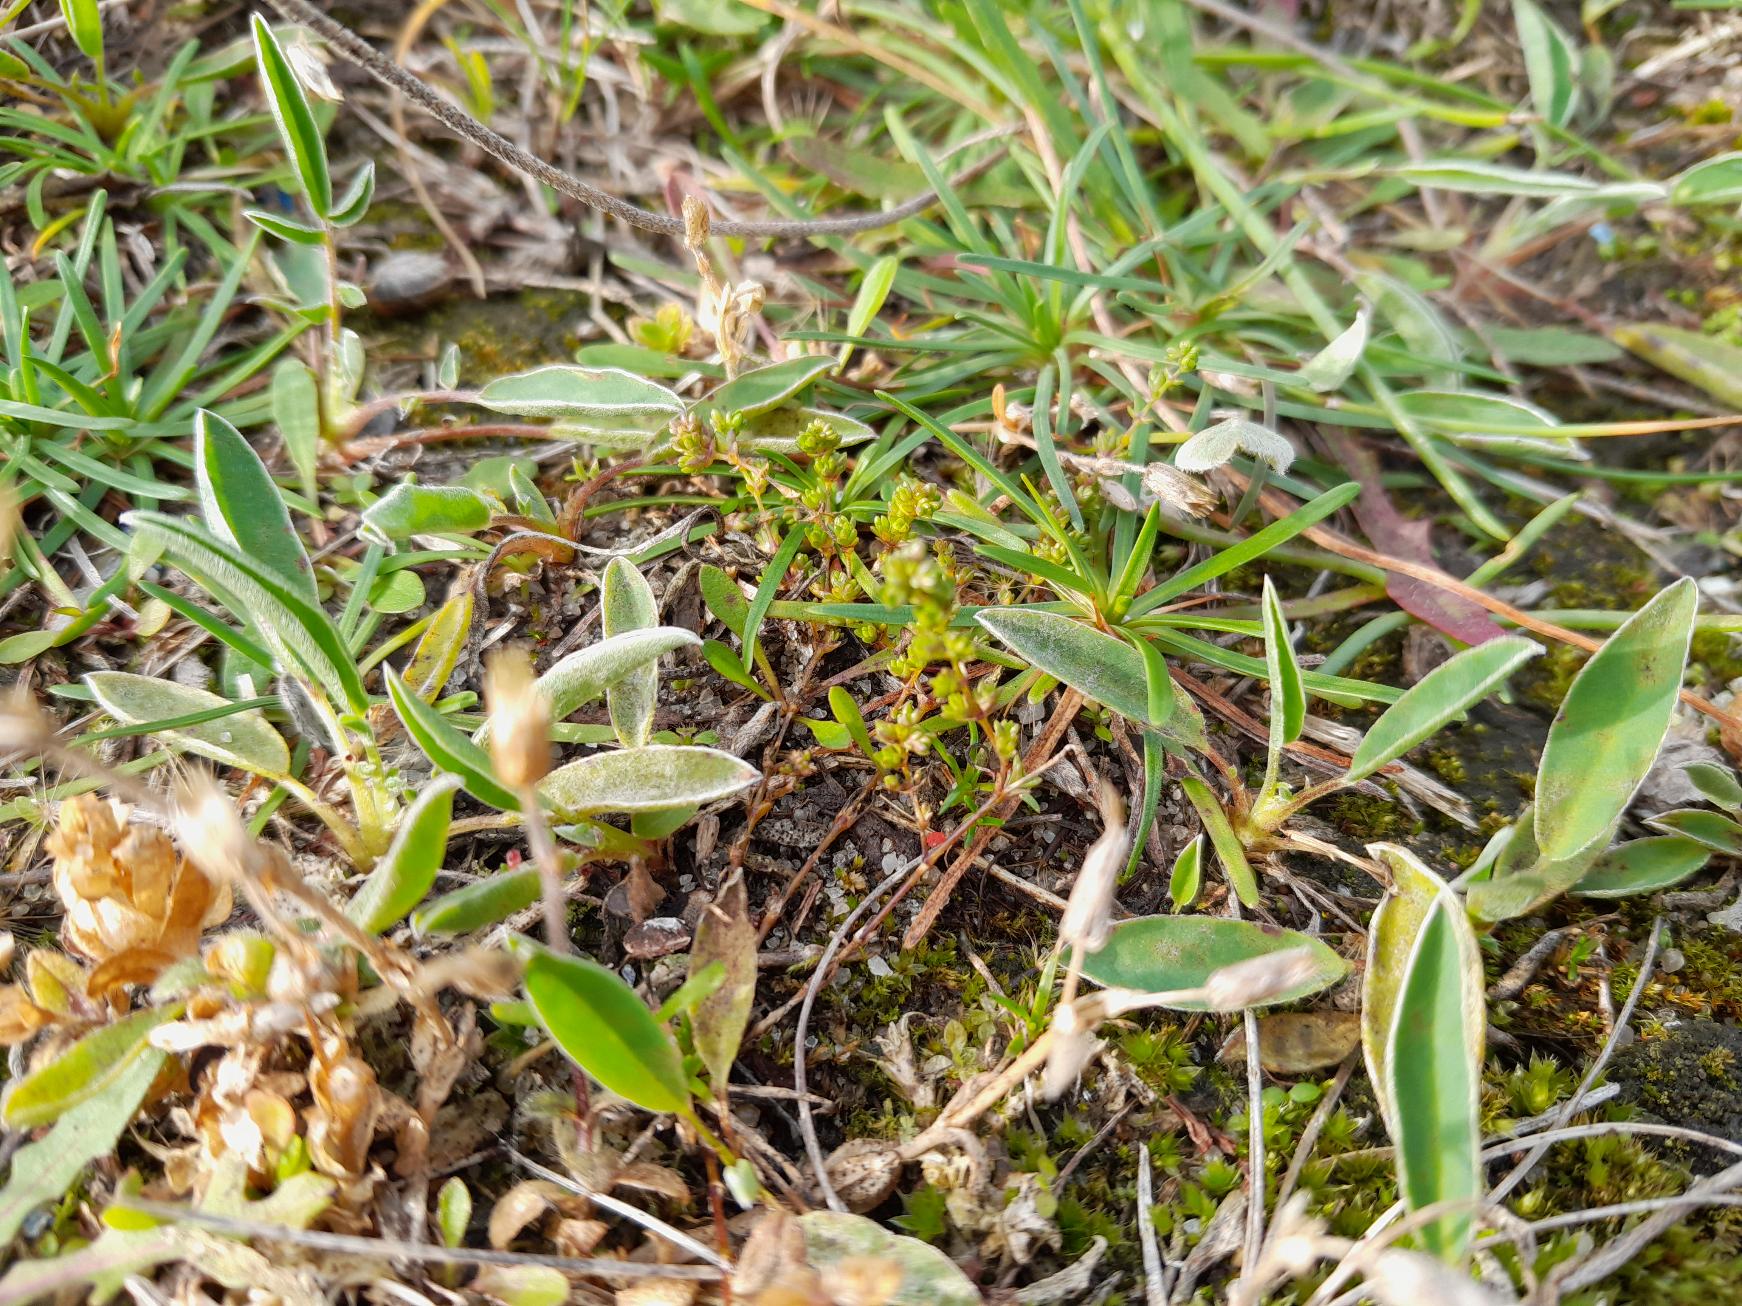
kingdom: Plantae
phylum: Tracheophyta
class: Magnoliopsida
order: Fabales
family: Fabaceae
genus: Anthyllis
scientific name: Anthyllis vulneraria
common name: Rundbælg
